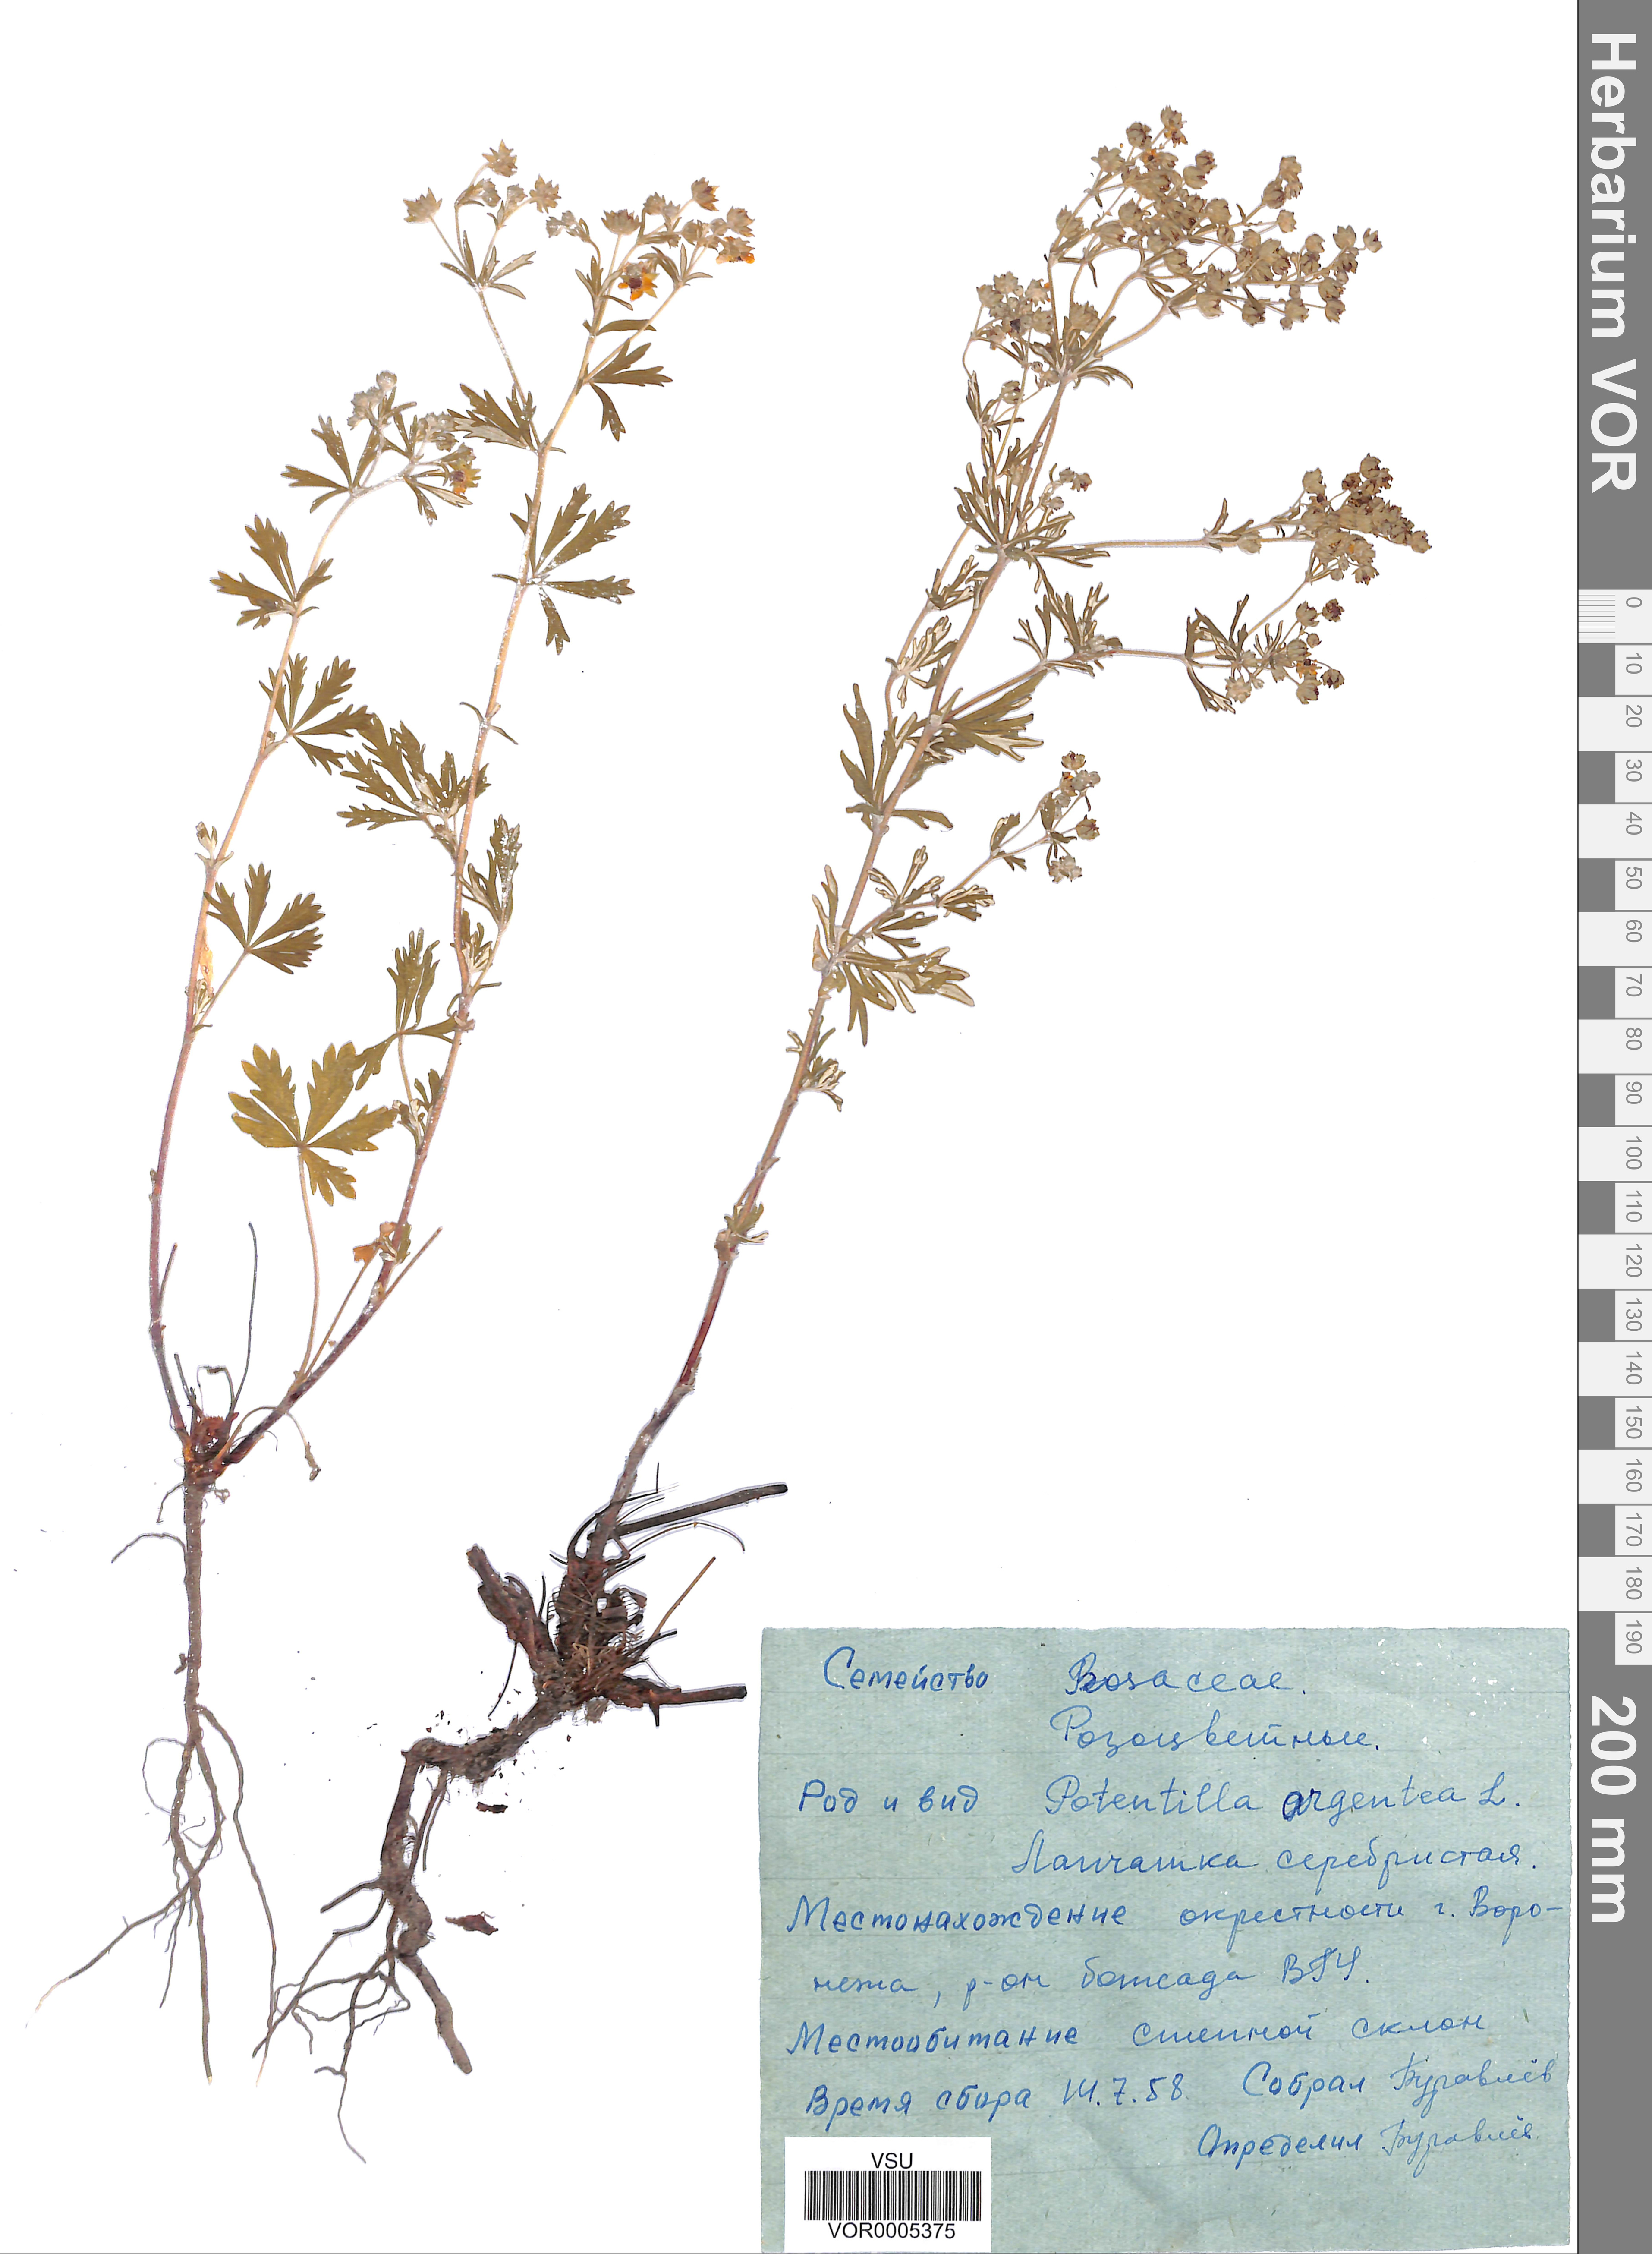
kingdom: Plantae
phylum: Tracheophyta
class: Magnoliopsida
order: Rosales
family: Rosaceae
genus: Potentilla
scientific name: Potentilla argentea
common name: Hoary cinquefoil
